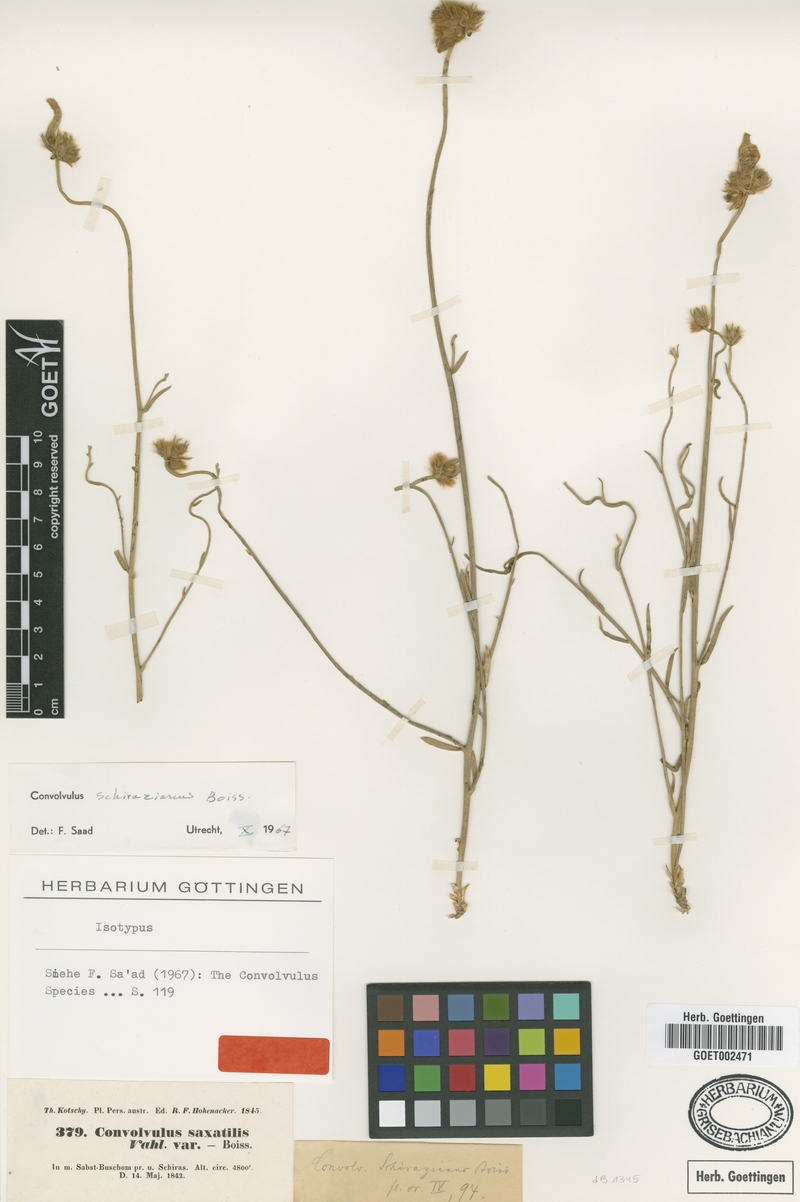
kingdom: Plantae
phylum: Tracheophyta
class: Magnoliopsida
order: Solanales
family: Convolvulaceae
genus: Convolvulus
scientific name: Convolvulus schirazianus
